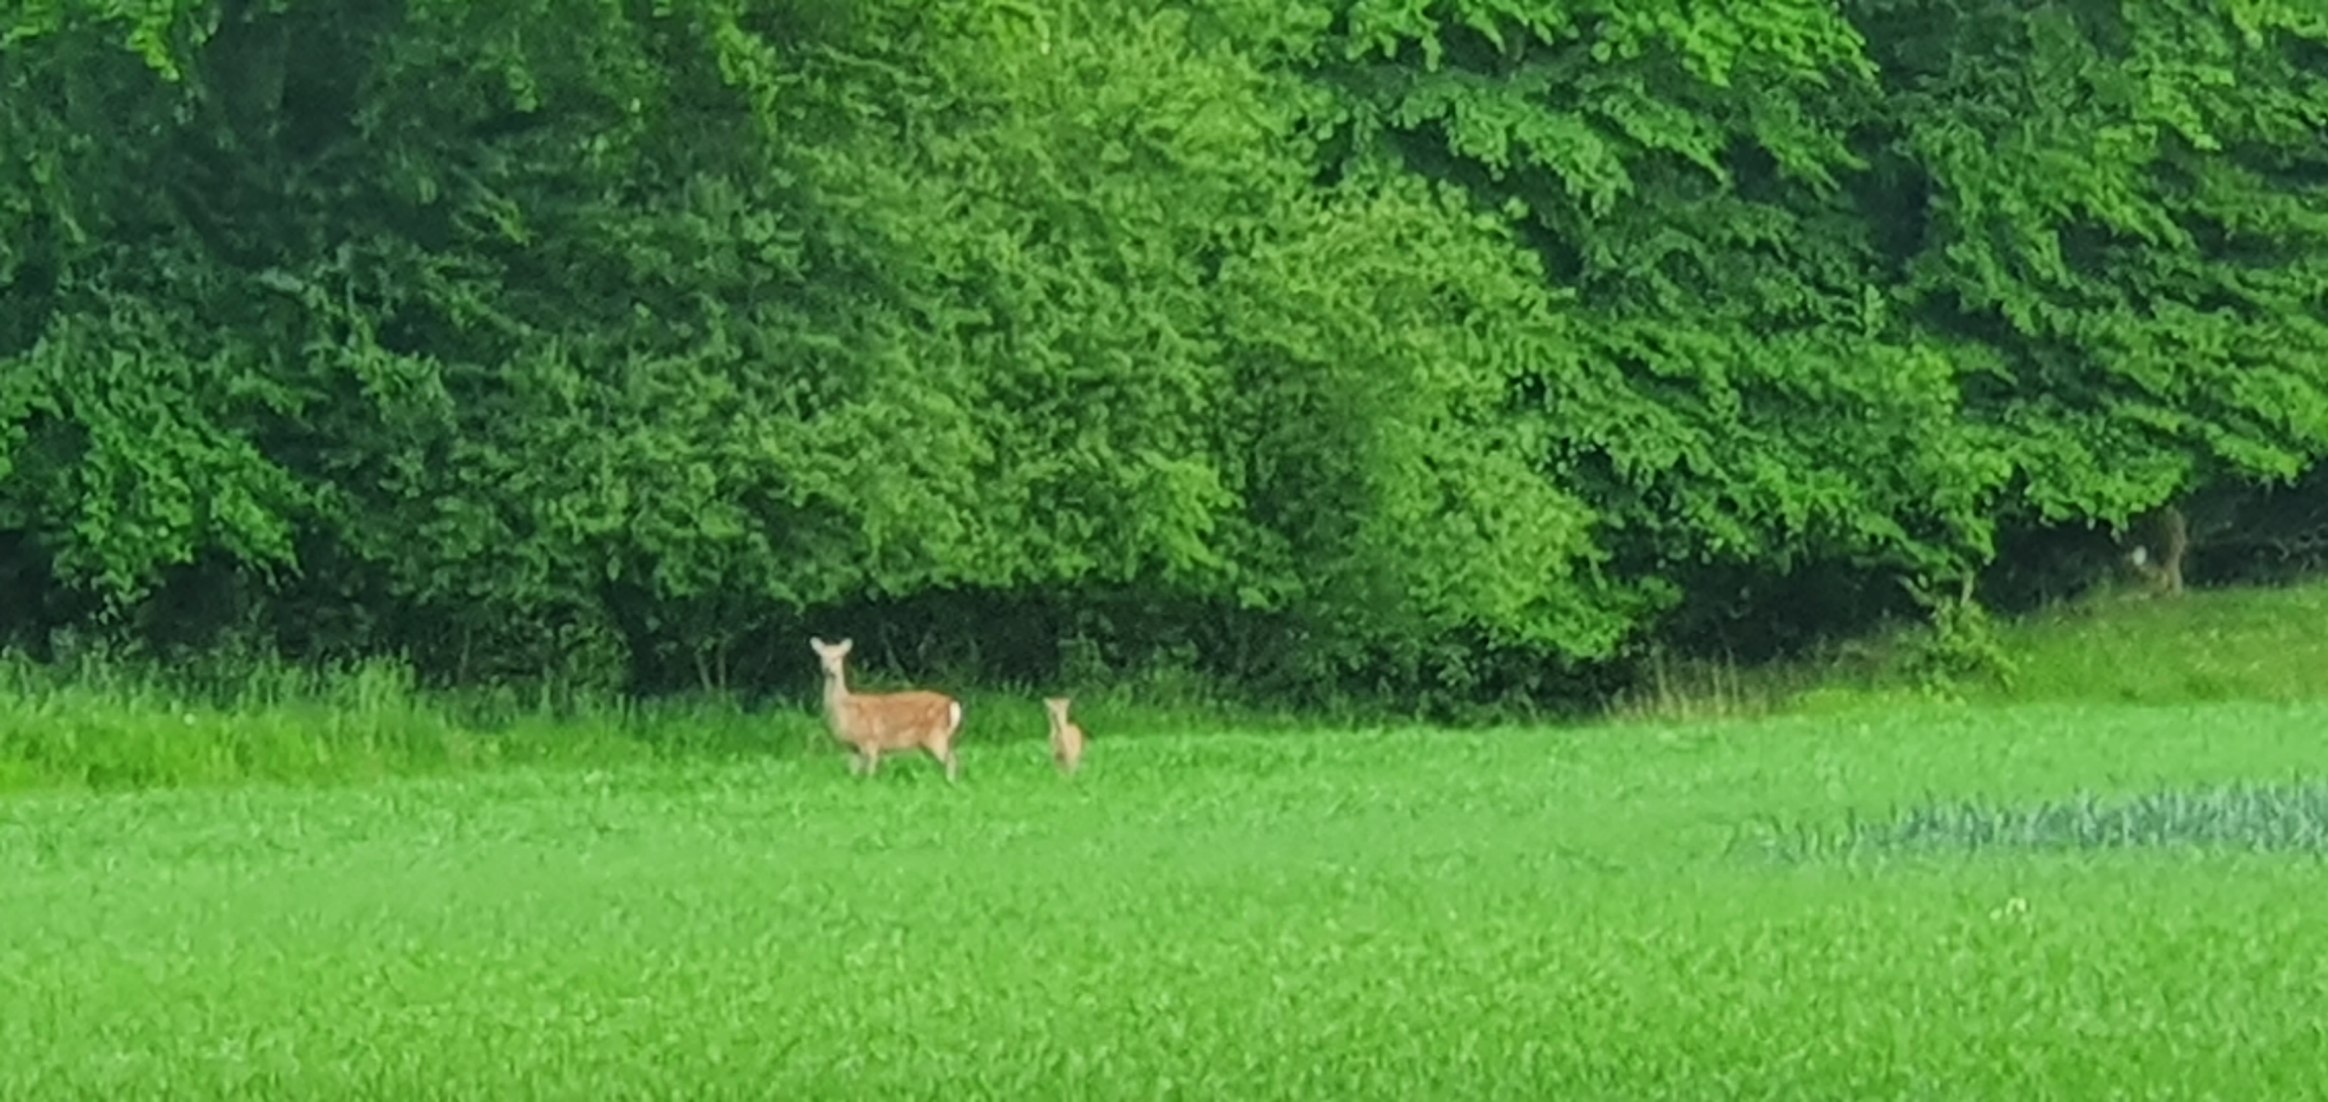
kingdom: Animalia
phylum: Chordata
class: Mammalia
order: Artiodactyla
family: Cervidae
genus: Cervus
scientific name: Cervus nippon
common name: Sika
